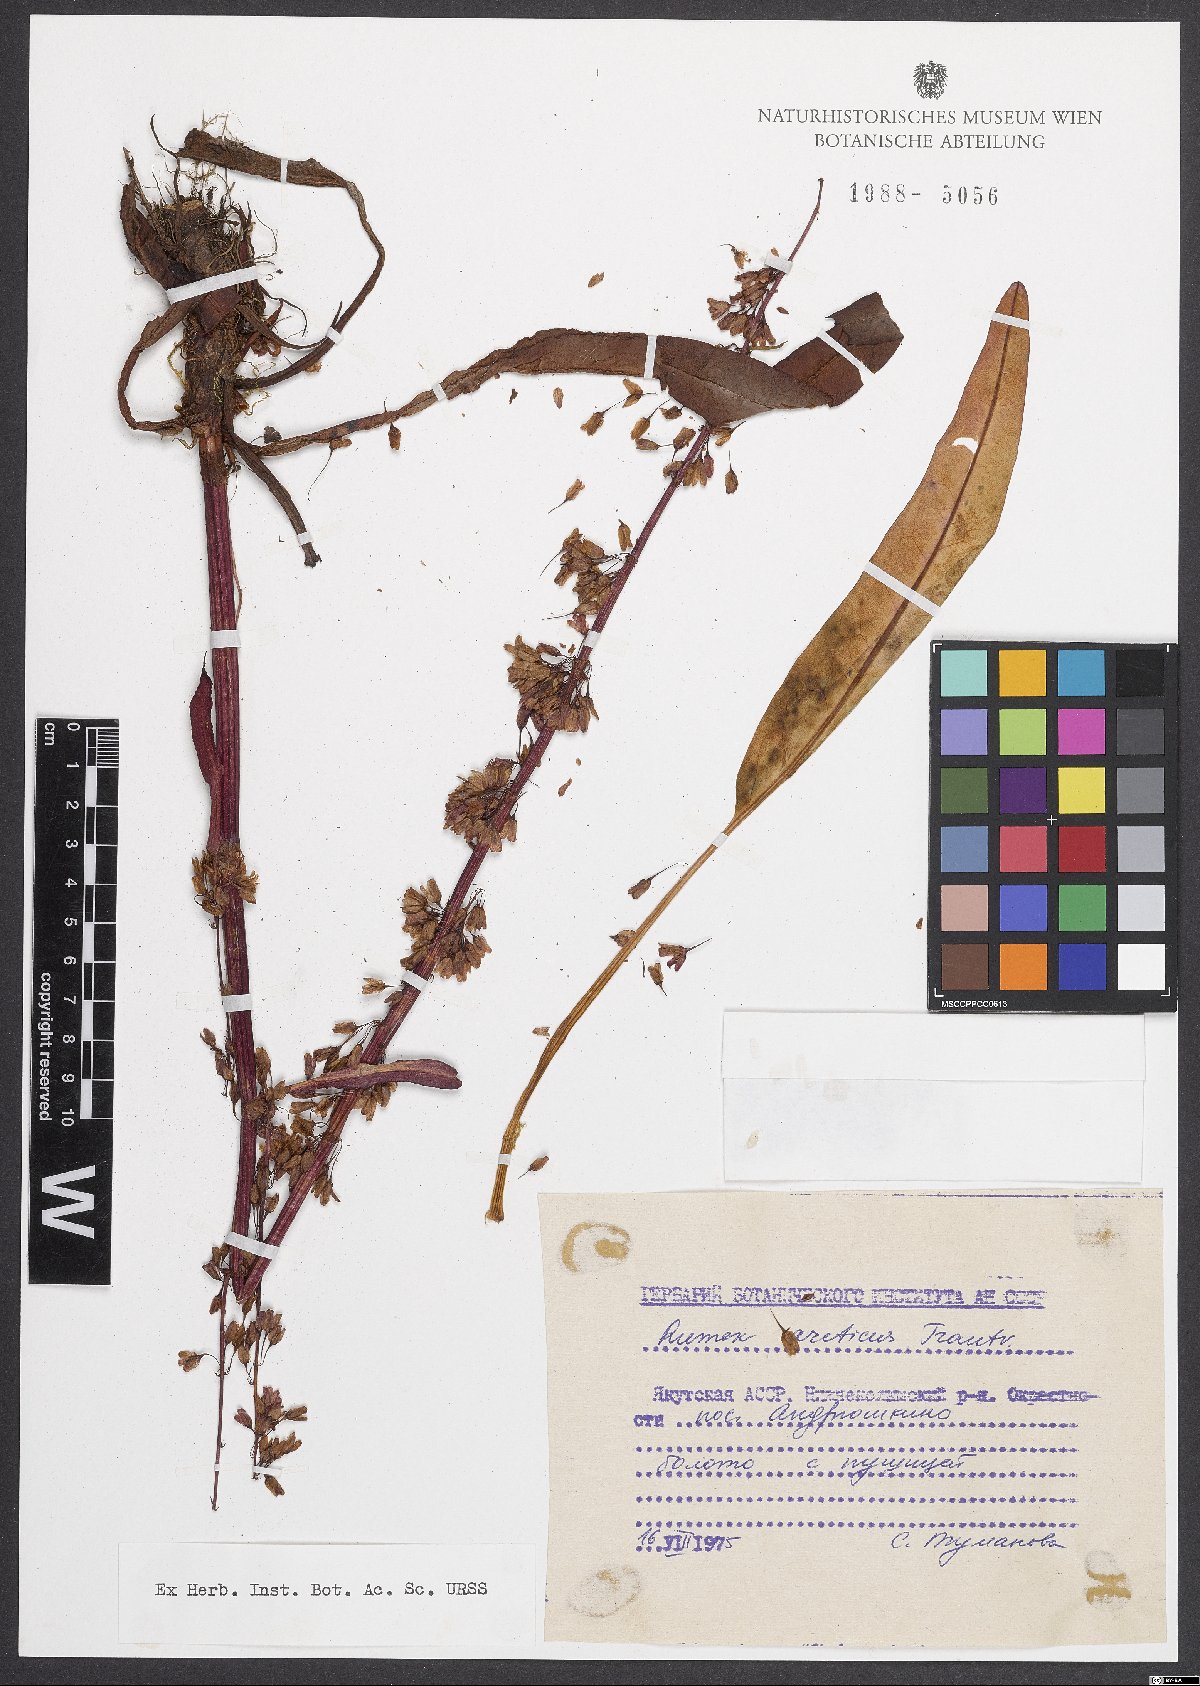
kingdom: Plantae
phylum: Tracheophyta
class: Magnoliopsida
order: Caryophyllales
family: Polygonaceae
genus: Rumex
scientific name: Rumex arcticus
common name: Arctic dock
